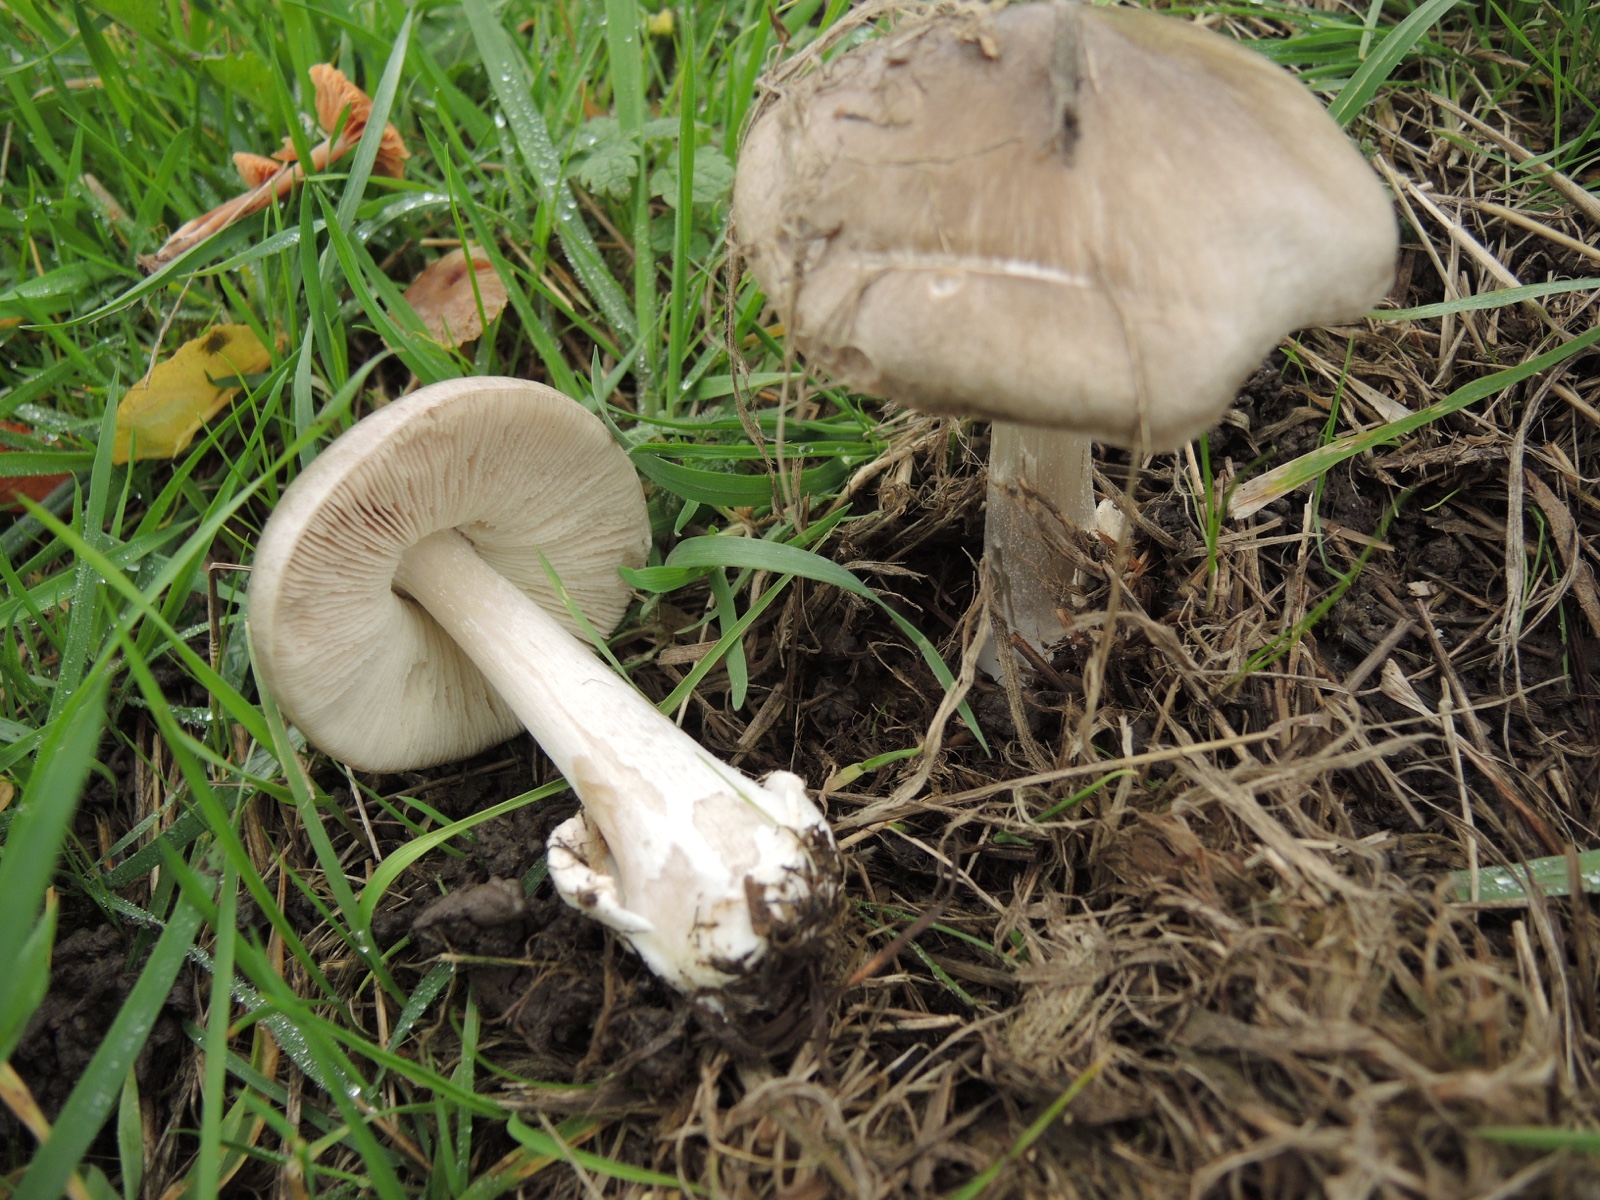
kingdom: Fungi
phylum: Basidiomycota
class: Agaricomycetes
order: Agaricales
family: Pluteaceae
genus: Volvopluteus
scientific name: Volvopluteus gloiocephalus
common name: høj posesvamp
